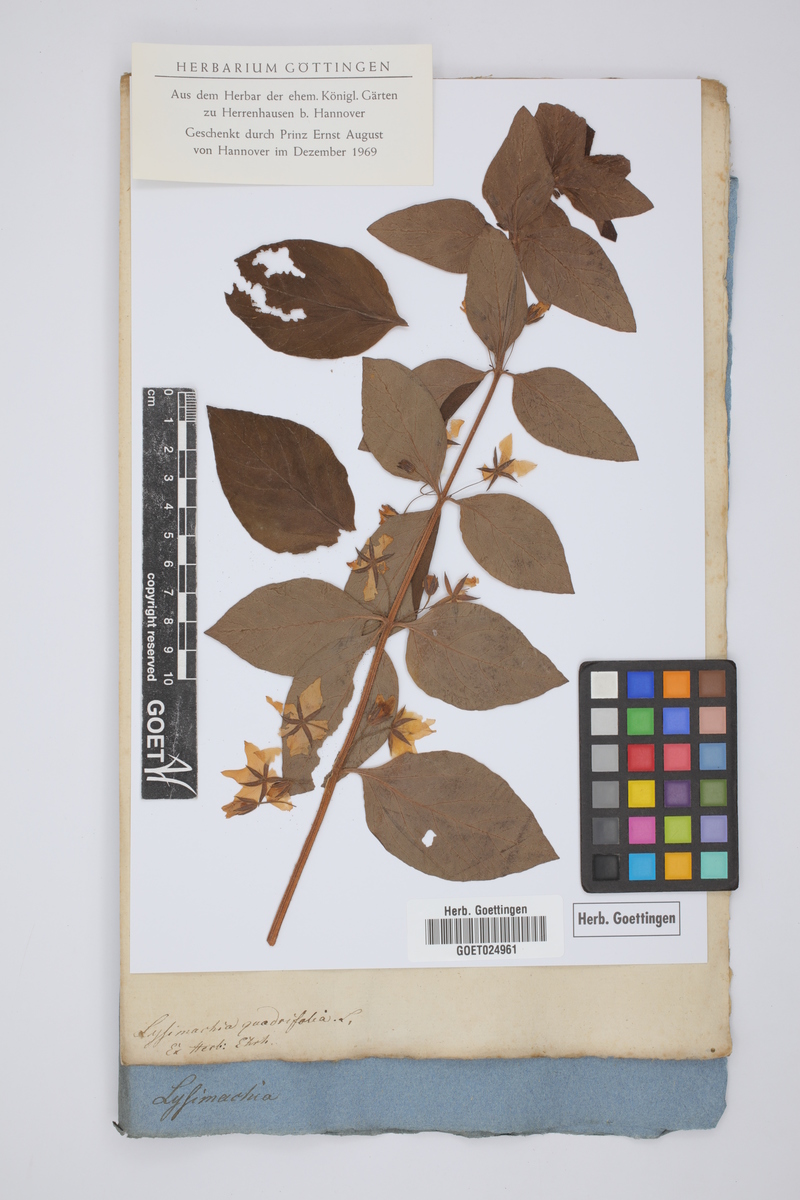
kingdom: Plantae
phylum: Tracheophyta
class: Magnoliopsida
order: Ericales
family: Primulaceae
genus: Lysimachia
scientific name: Lysimachia quadrifolia
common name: Whorled loosestrife
